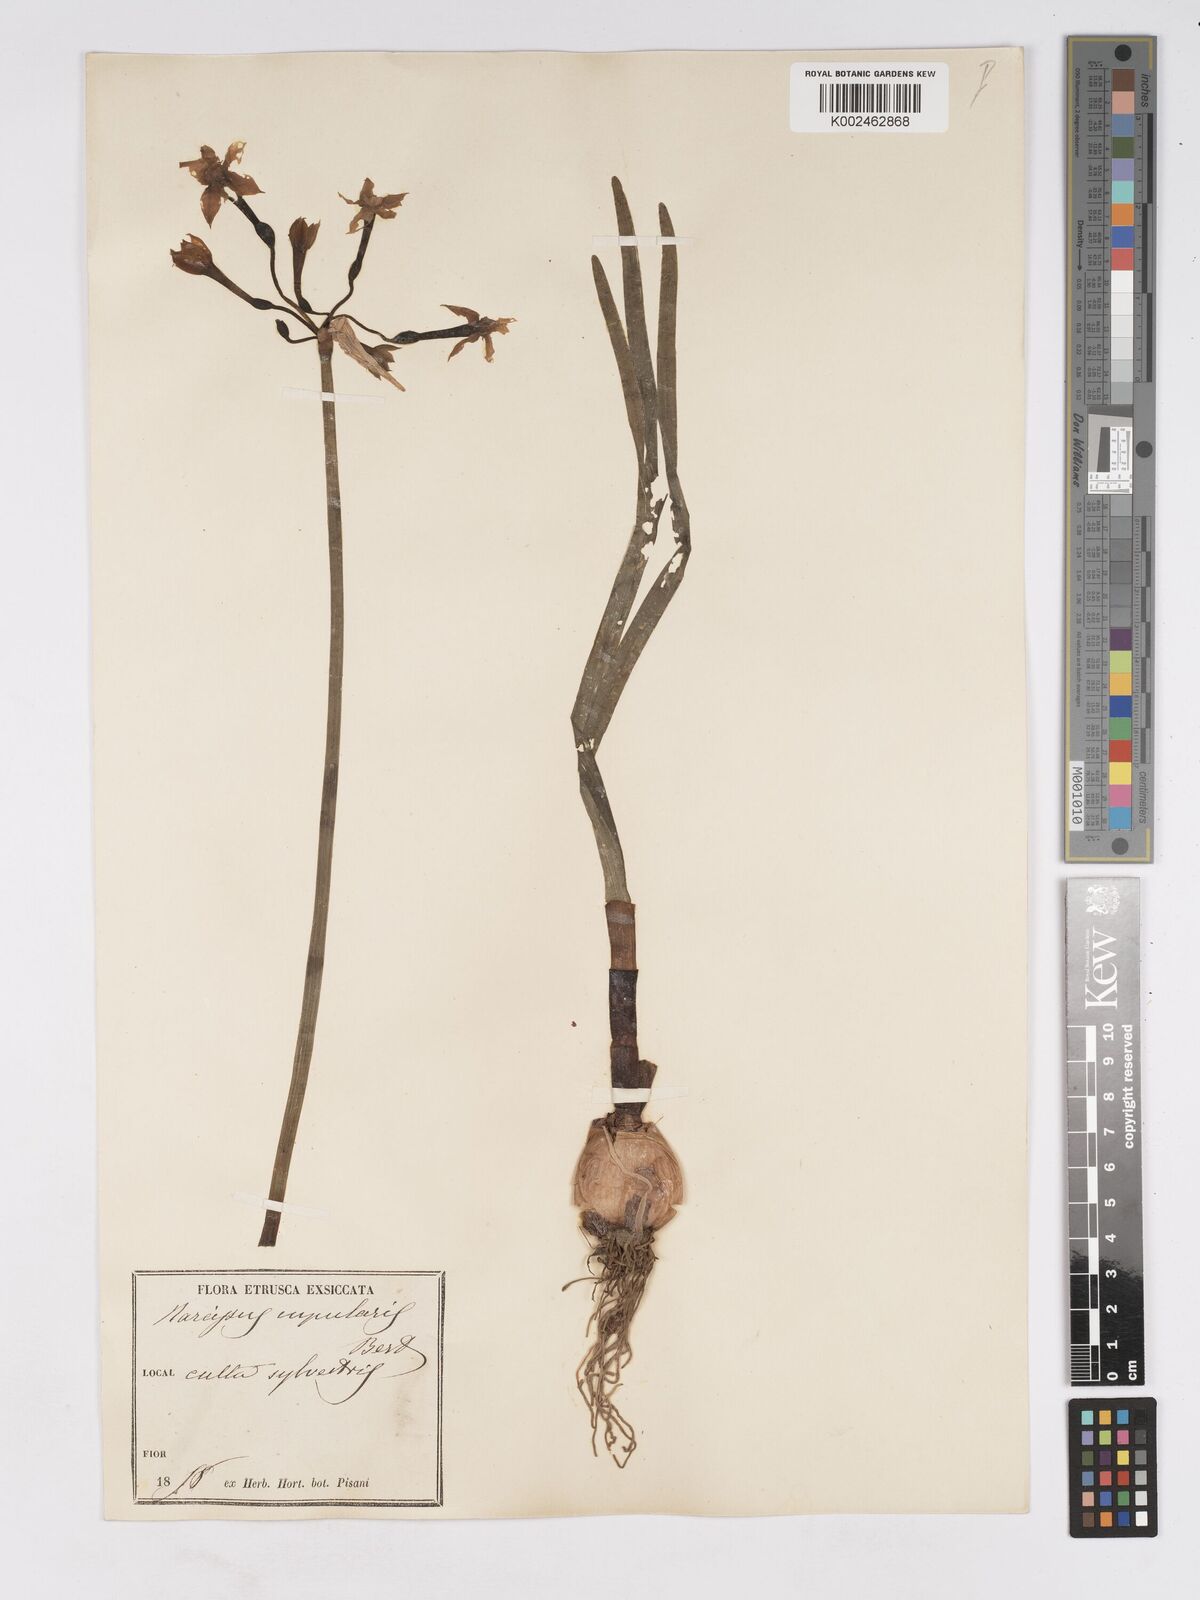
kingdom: Plantae
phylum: Tracheophyta
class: Liliopsida
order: Asparagales
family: Amaryllidaceae
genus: Narcissus
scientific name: Narcissus tazetta
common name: Bunch-flowered daffodil
